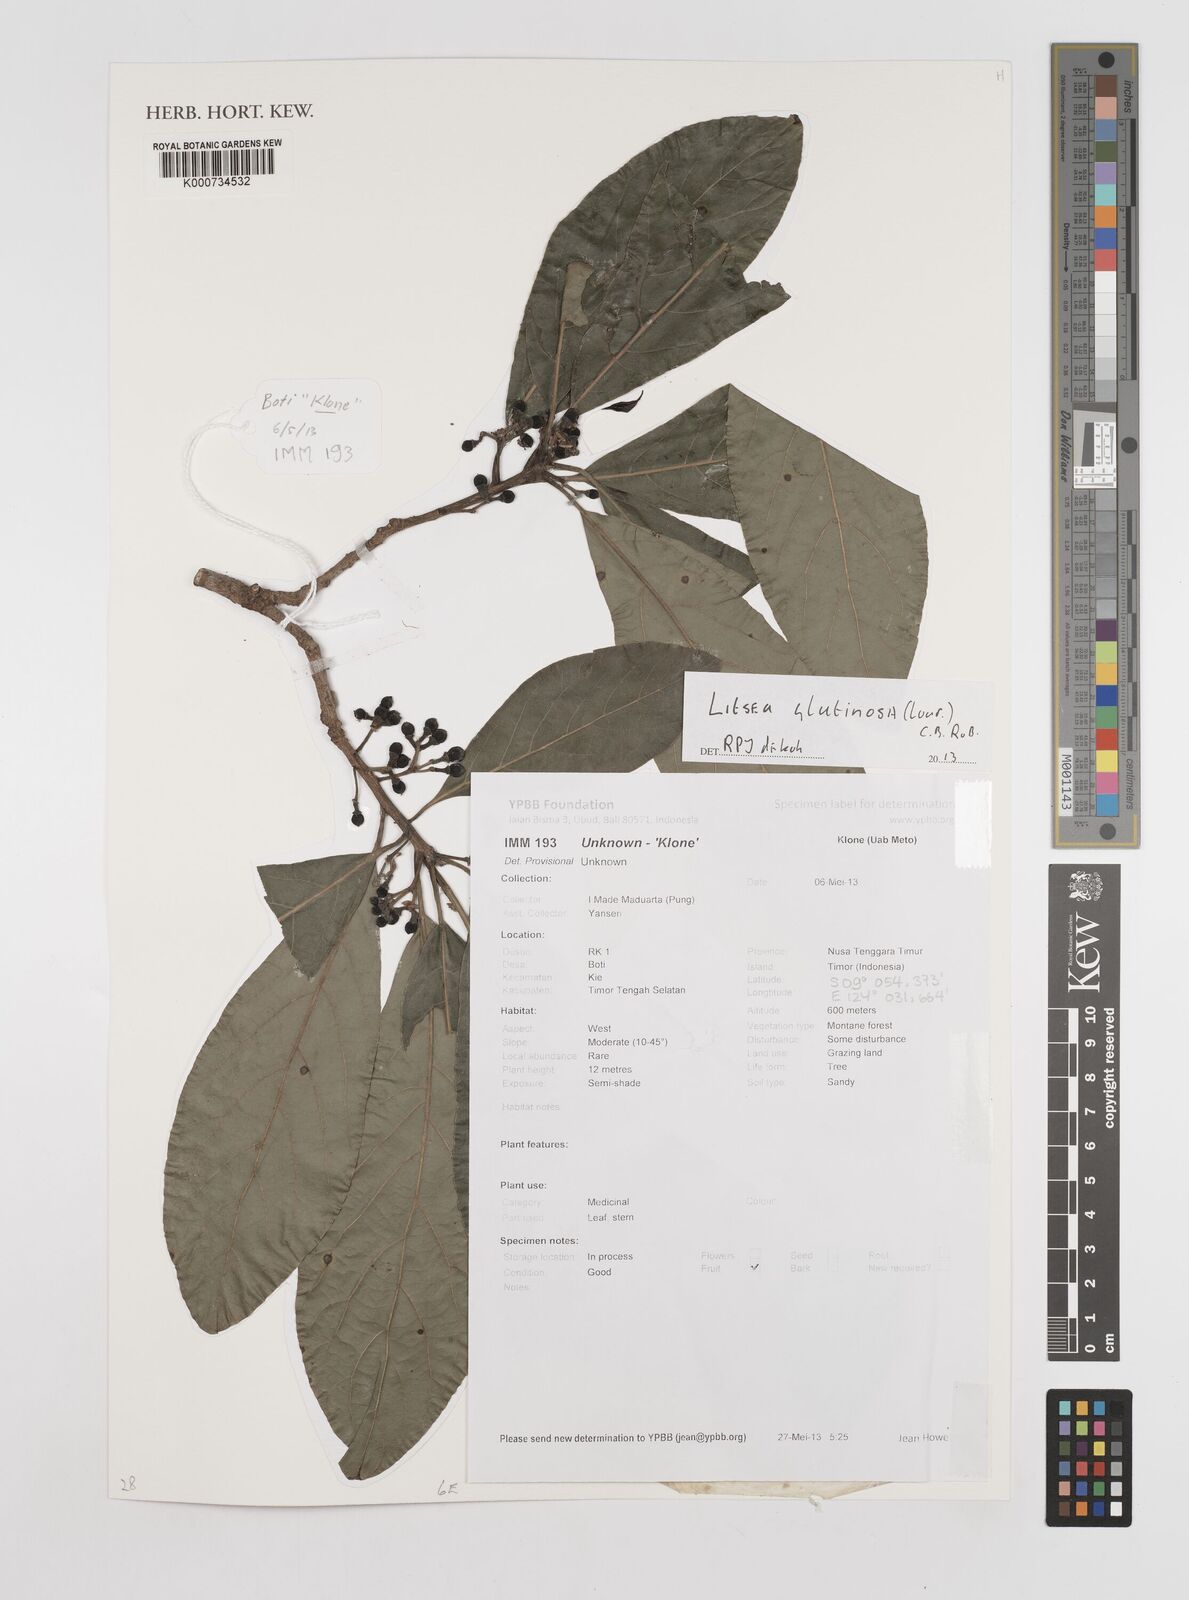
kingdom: Plantae
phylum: Tracheophyta
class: Magnoliopsida
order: Laurales
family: Lauraceae
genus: Litsea
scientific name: Litsea glutinosa
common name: Indian-laurel
